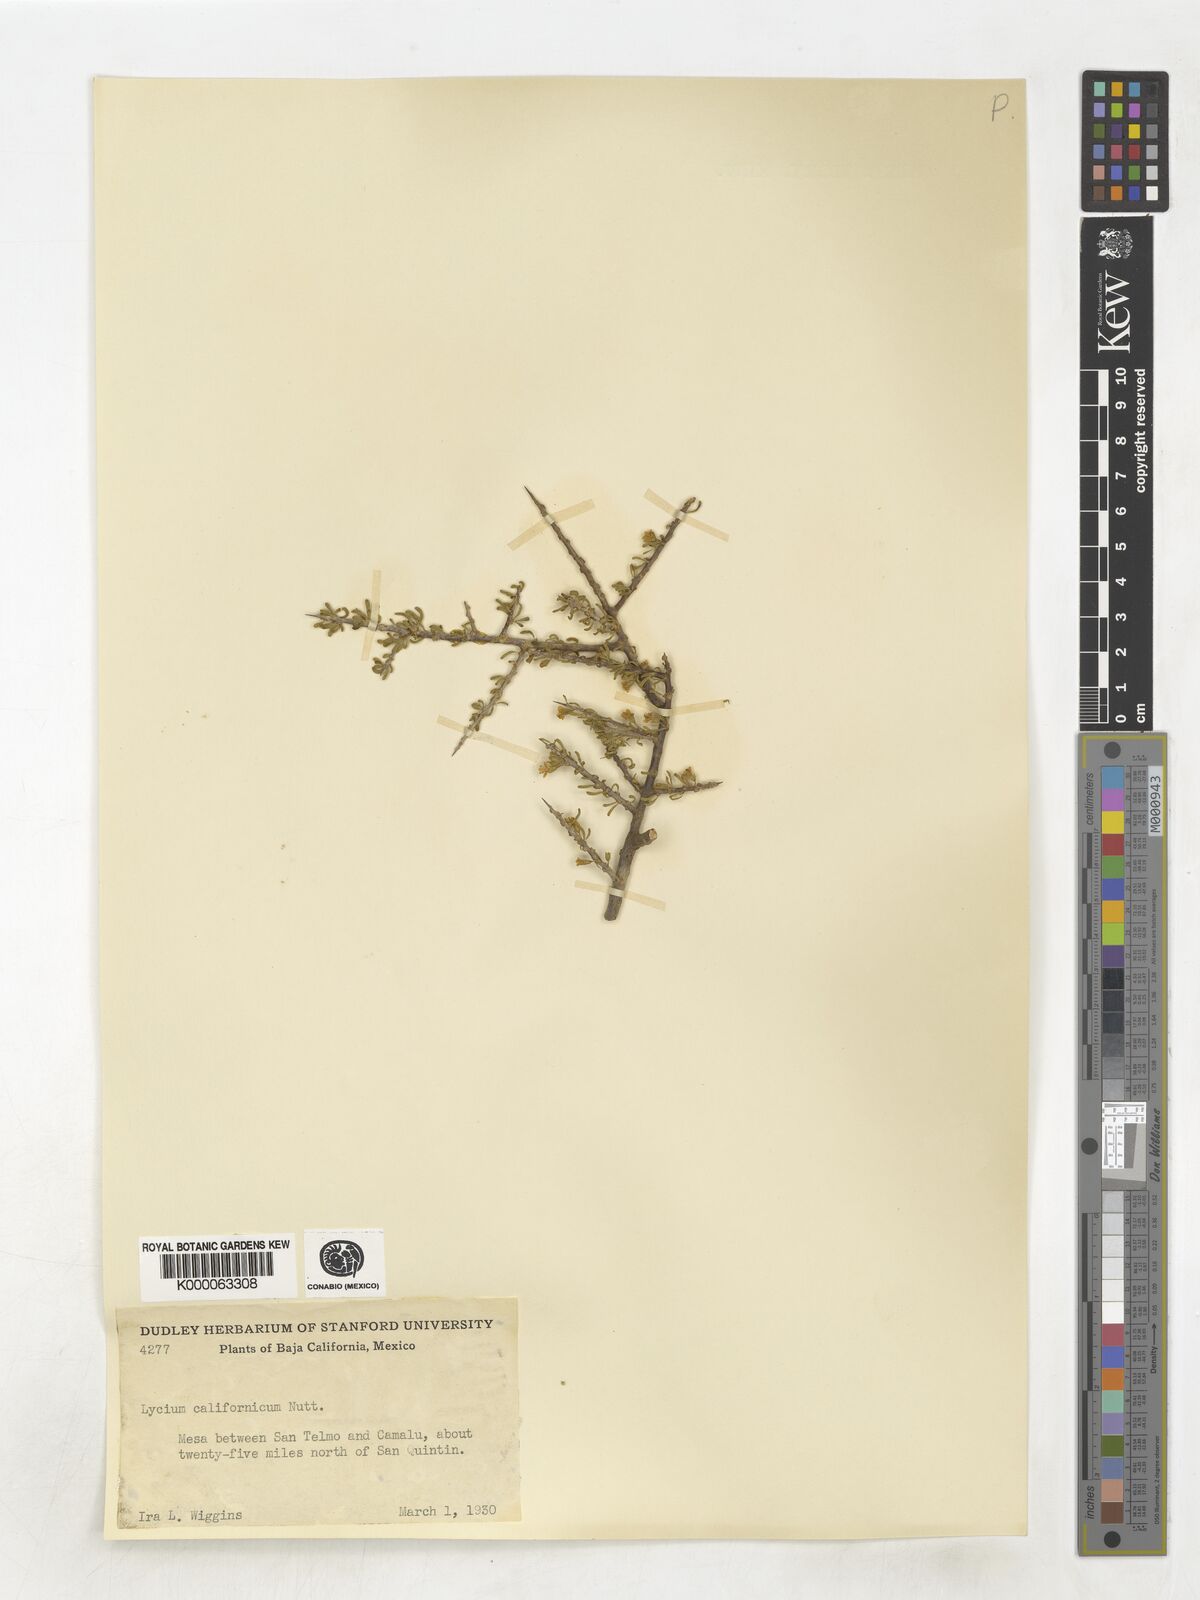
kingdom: Plantae
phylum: Tracheophyta
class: Magnoliopsida
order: Solanales
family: Solanaceae
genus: Lycium
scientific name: Lycium californicum
